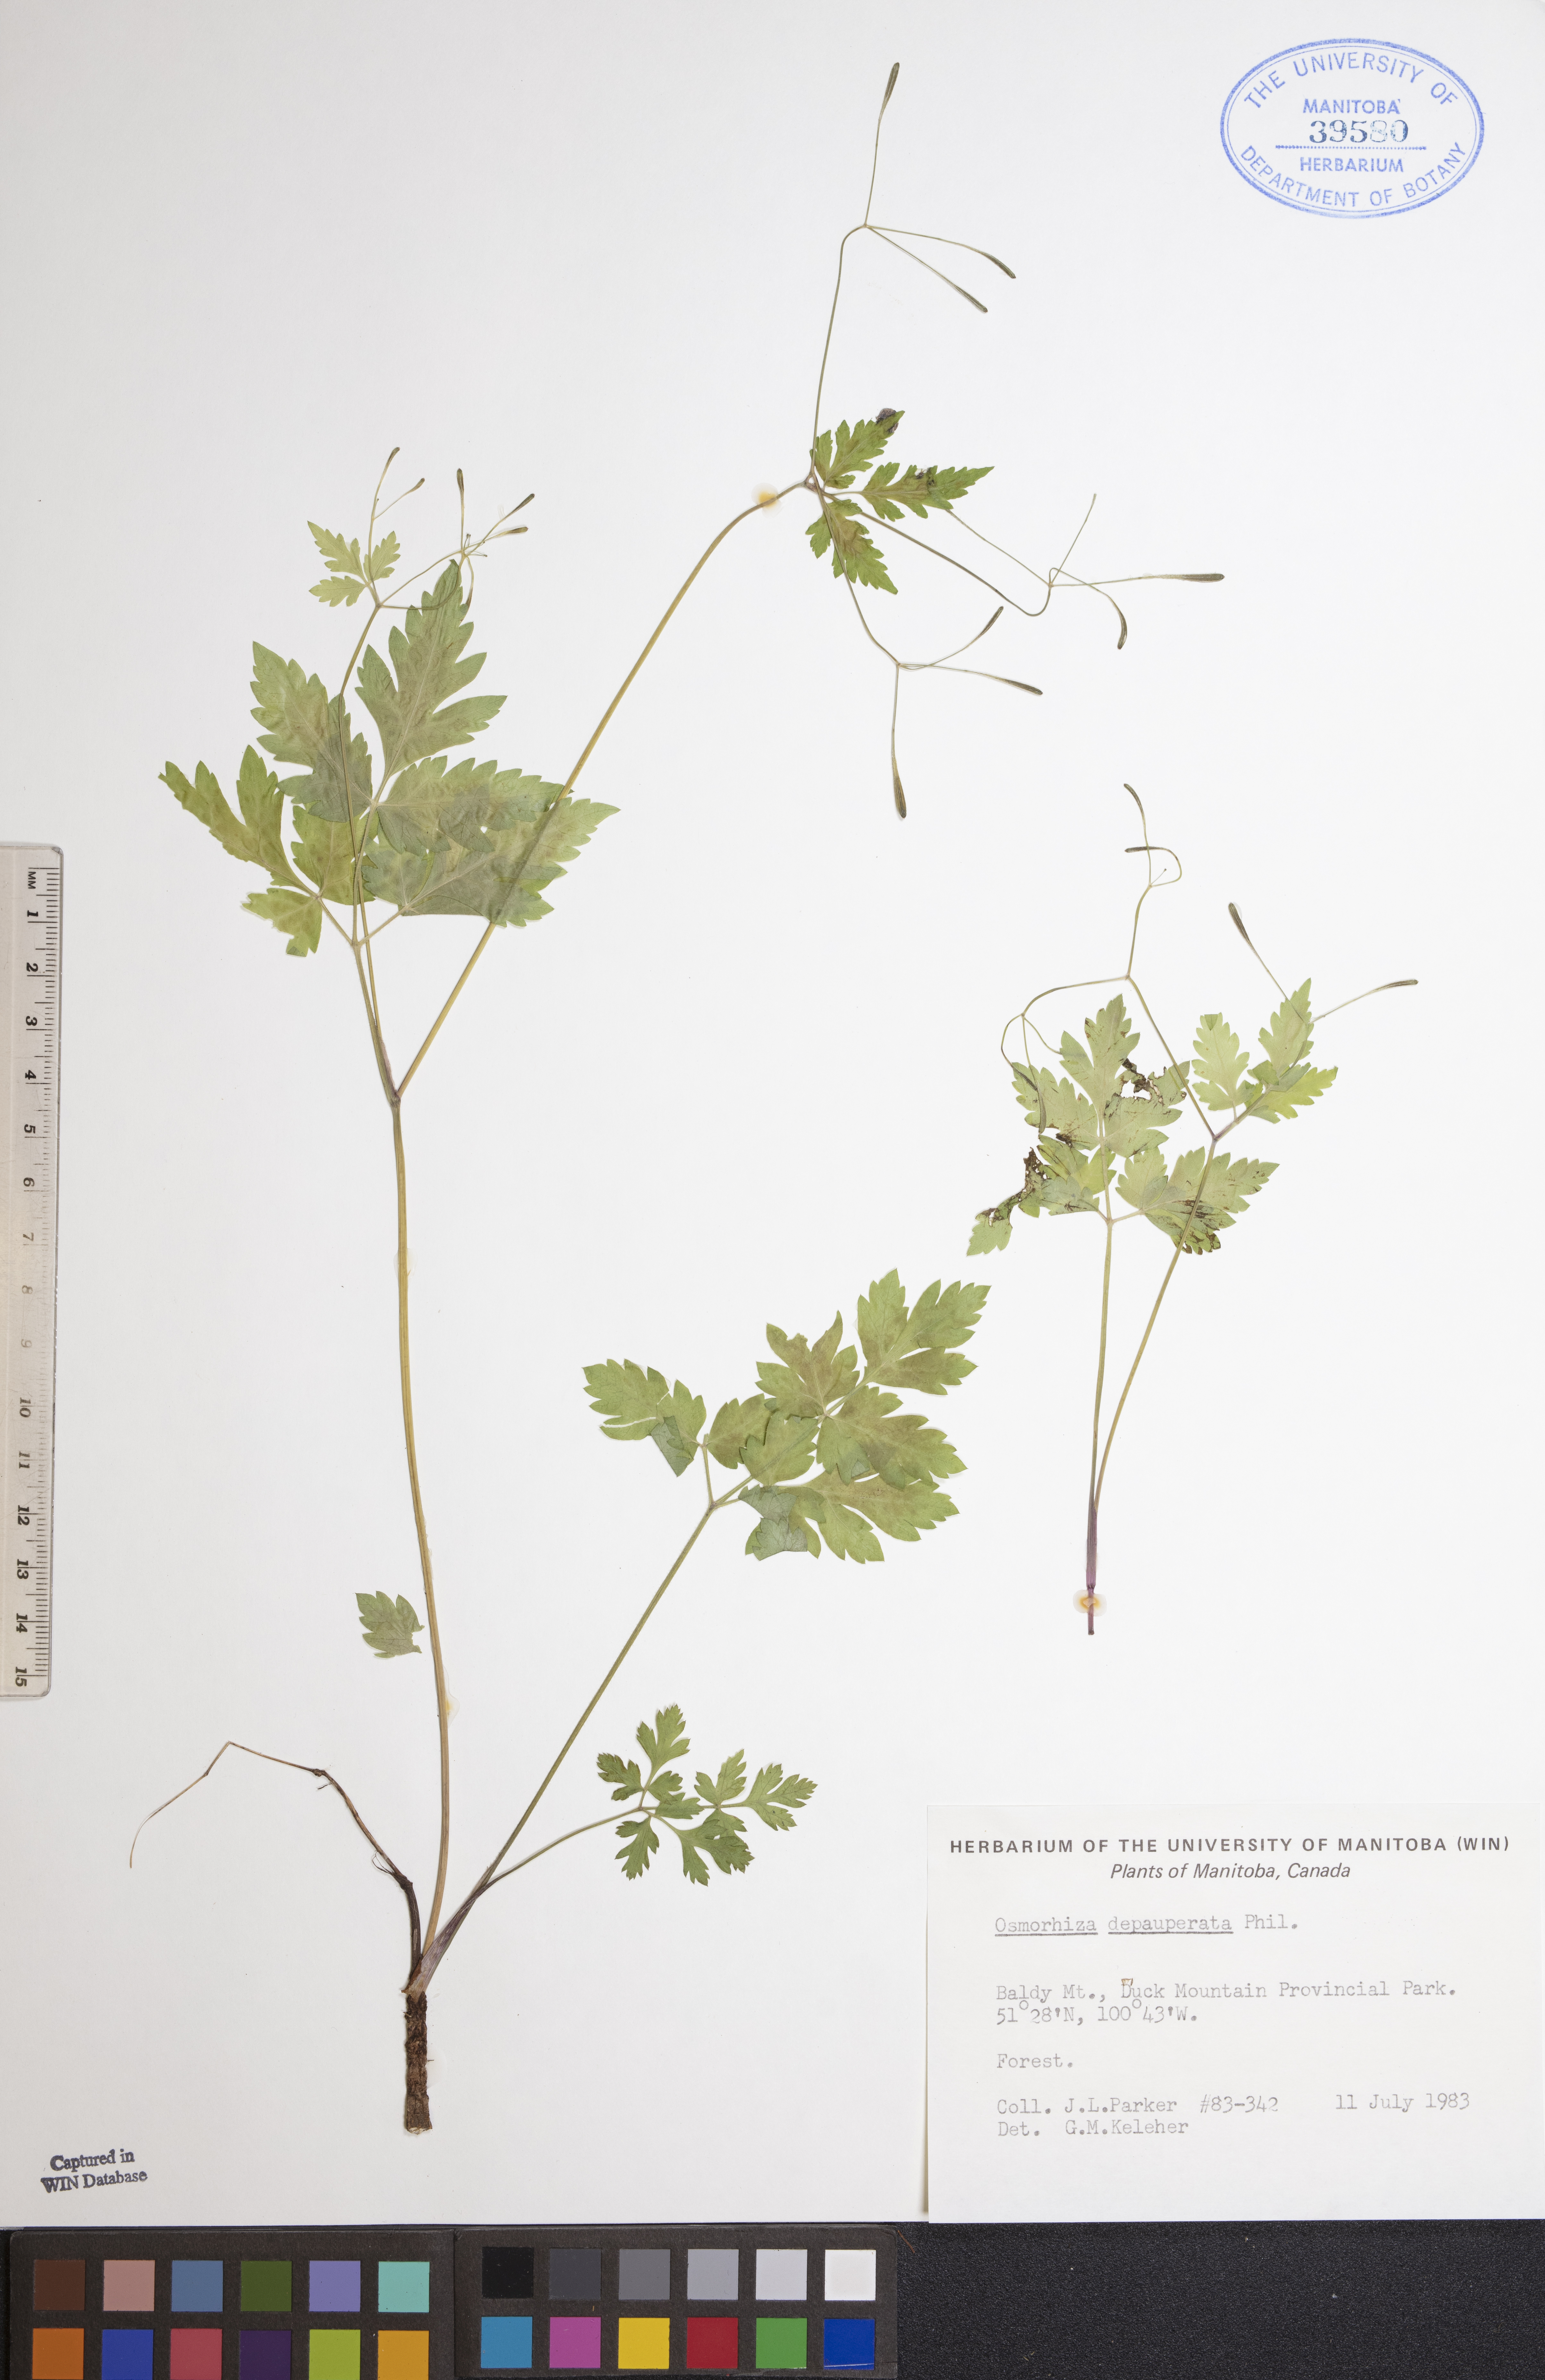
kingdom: Plantae
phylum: Tracheophyta
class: Magnoliopsida
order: Apiales
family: Apiaceae
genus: Osmorhiza
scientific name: Osmorhiza depauperata
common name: Blunt sweet cicely
